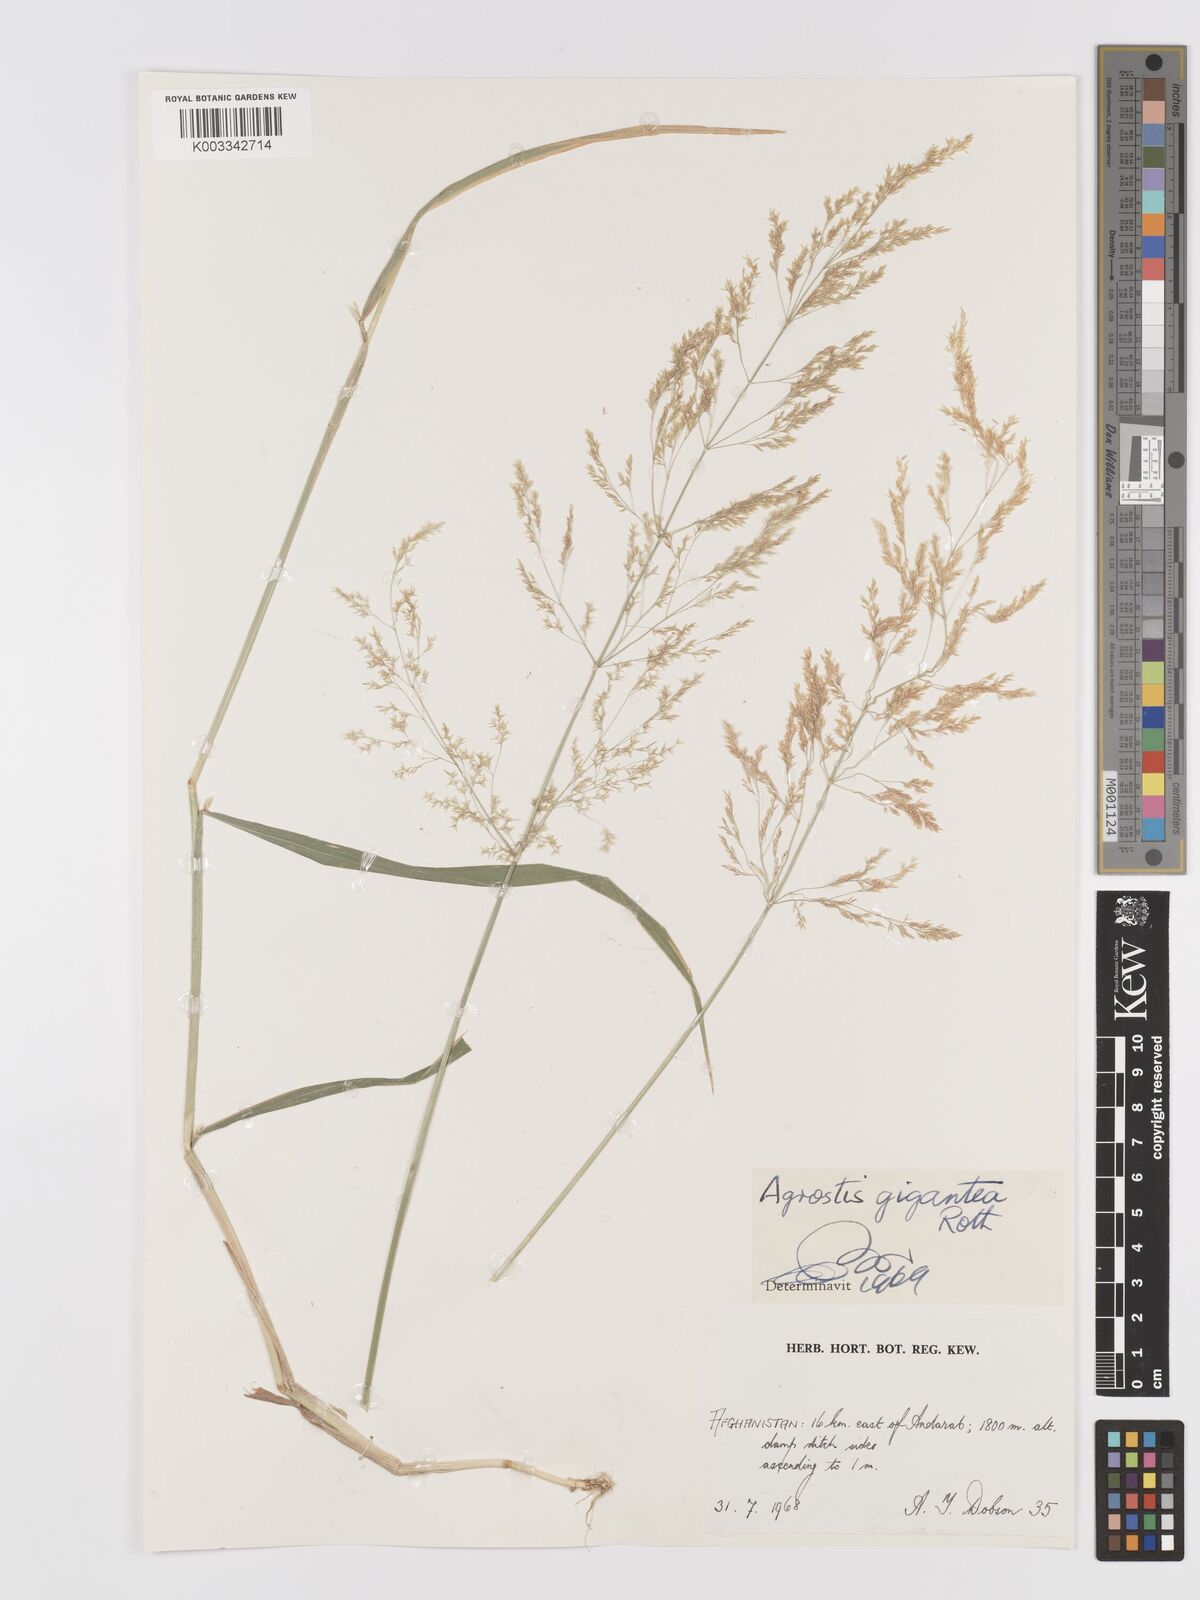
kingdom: Plantae
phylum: Tracheophyta
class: Liliopsida
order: Poales
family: Poaceae
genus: Agrostis
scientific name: Agrostis gigantea
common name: Black bent
